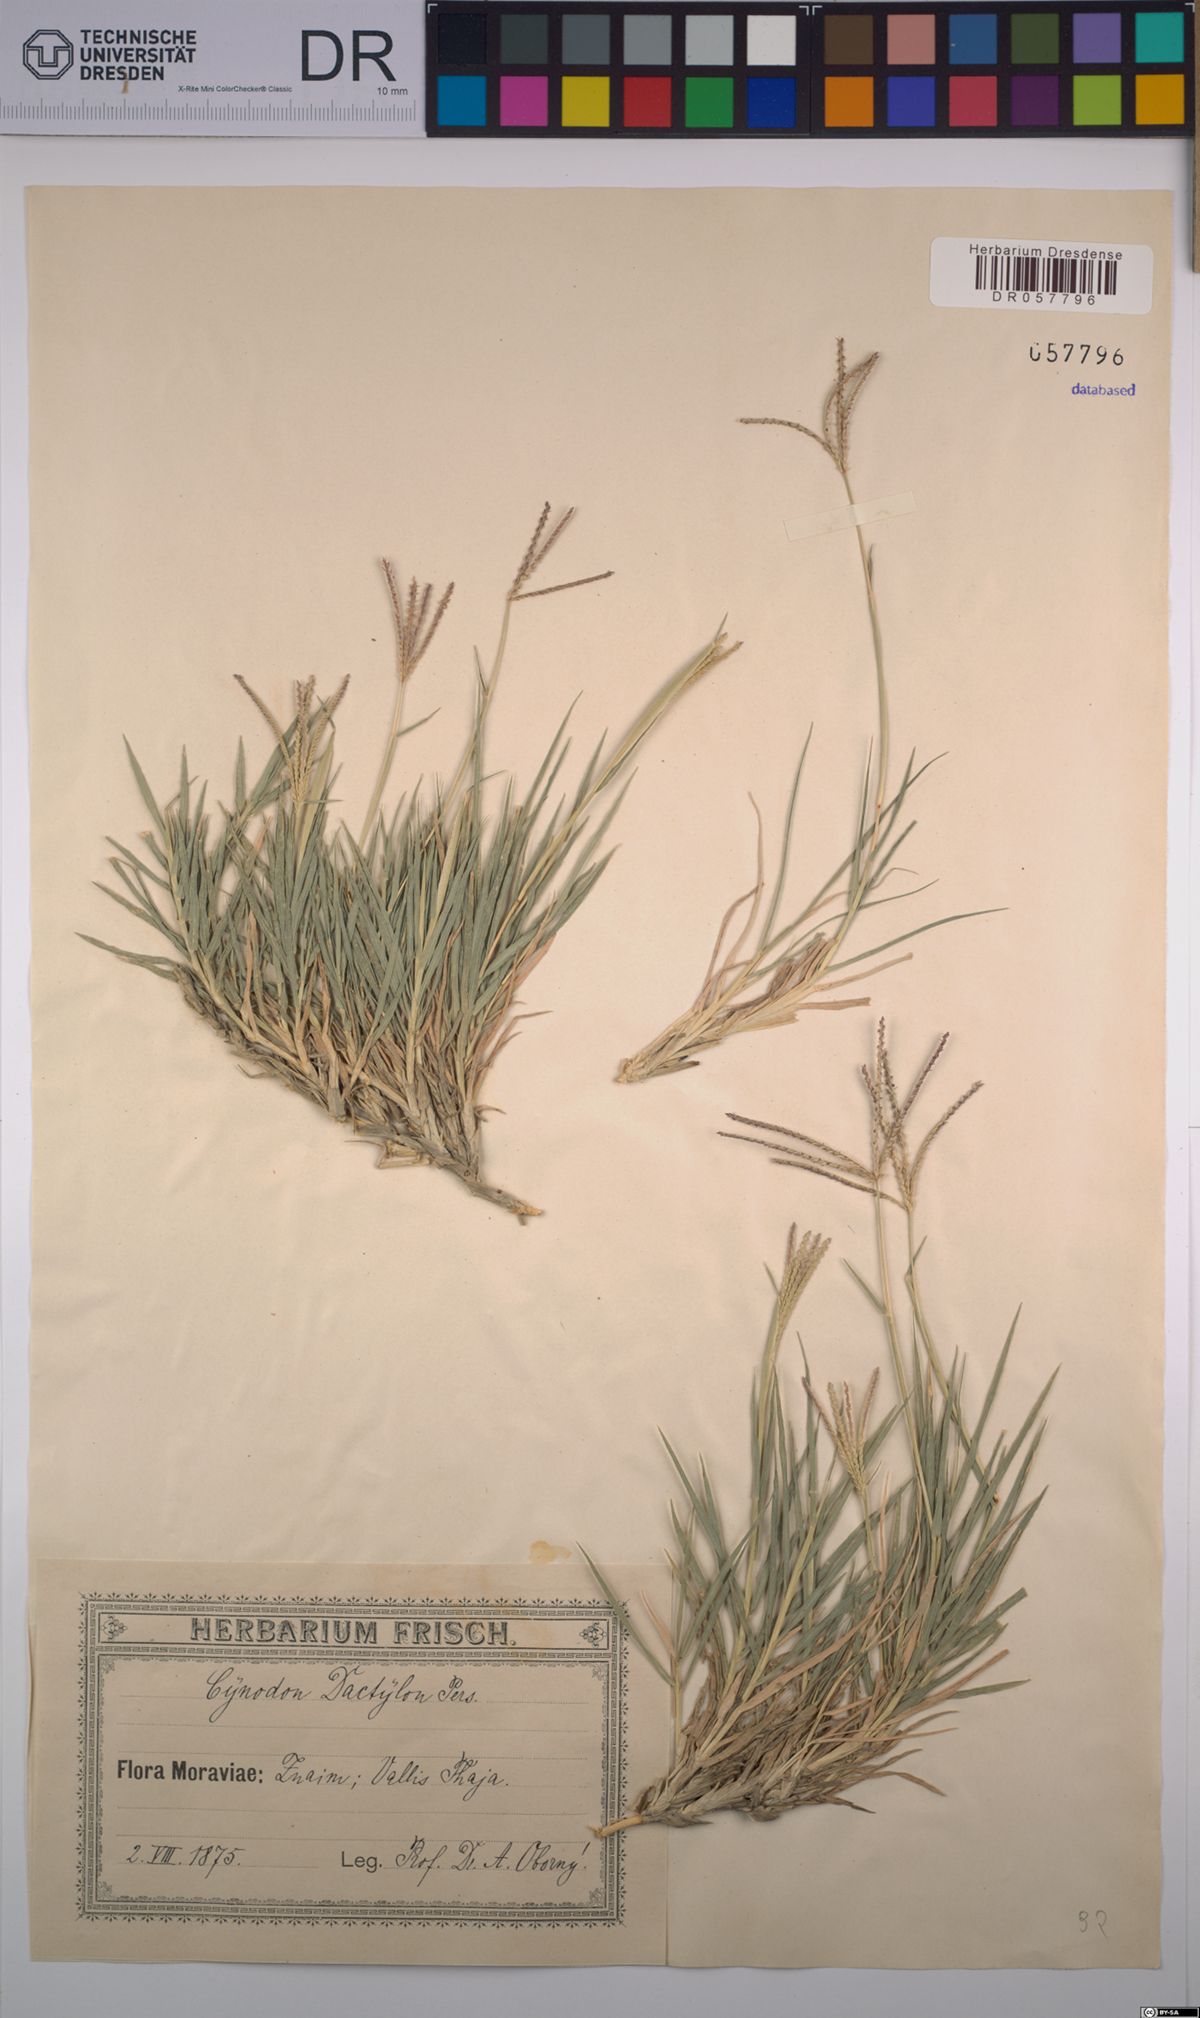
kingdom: Plantae
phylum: Tracheophyta
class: Liliopsida
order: Poales
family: Poaceae
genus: Cynodon
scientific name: Cynodon dactylon
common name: Bermuda grass
